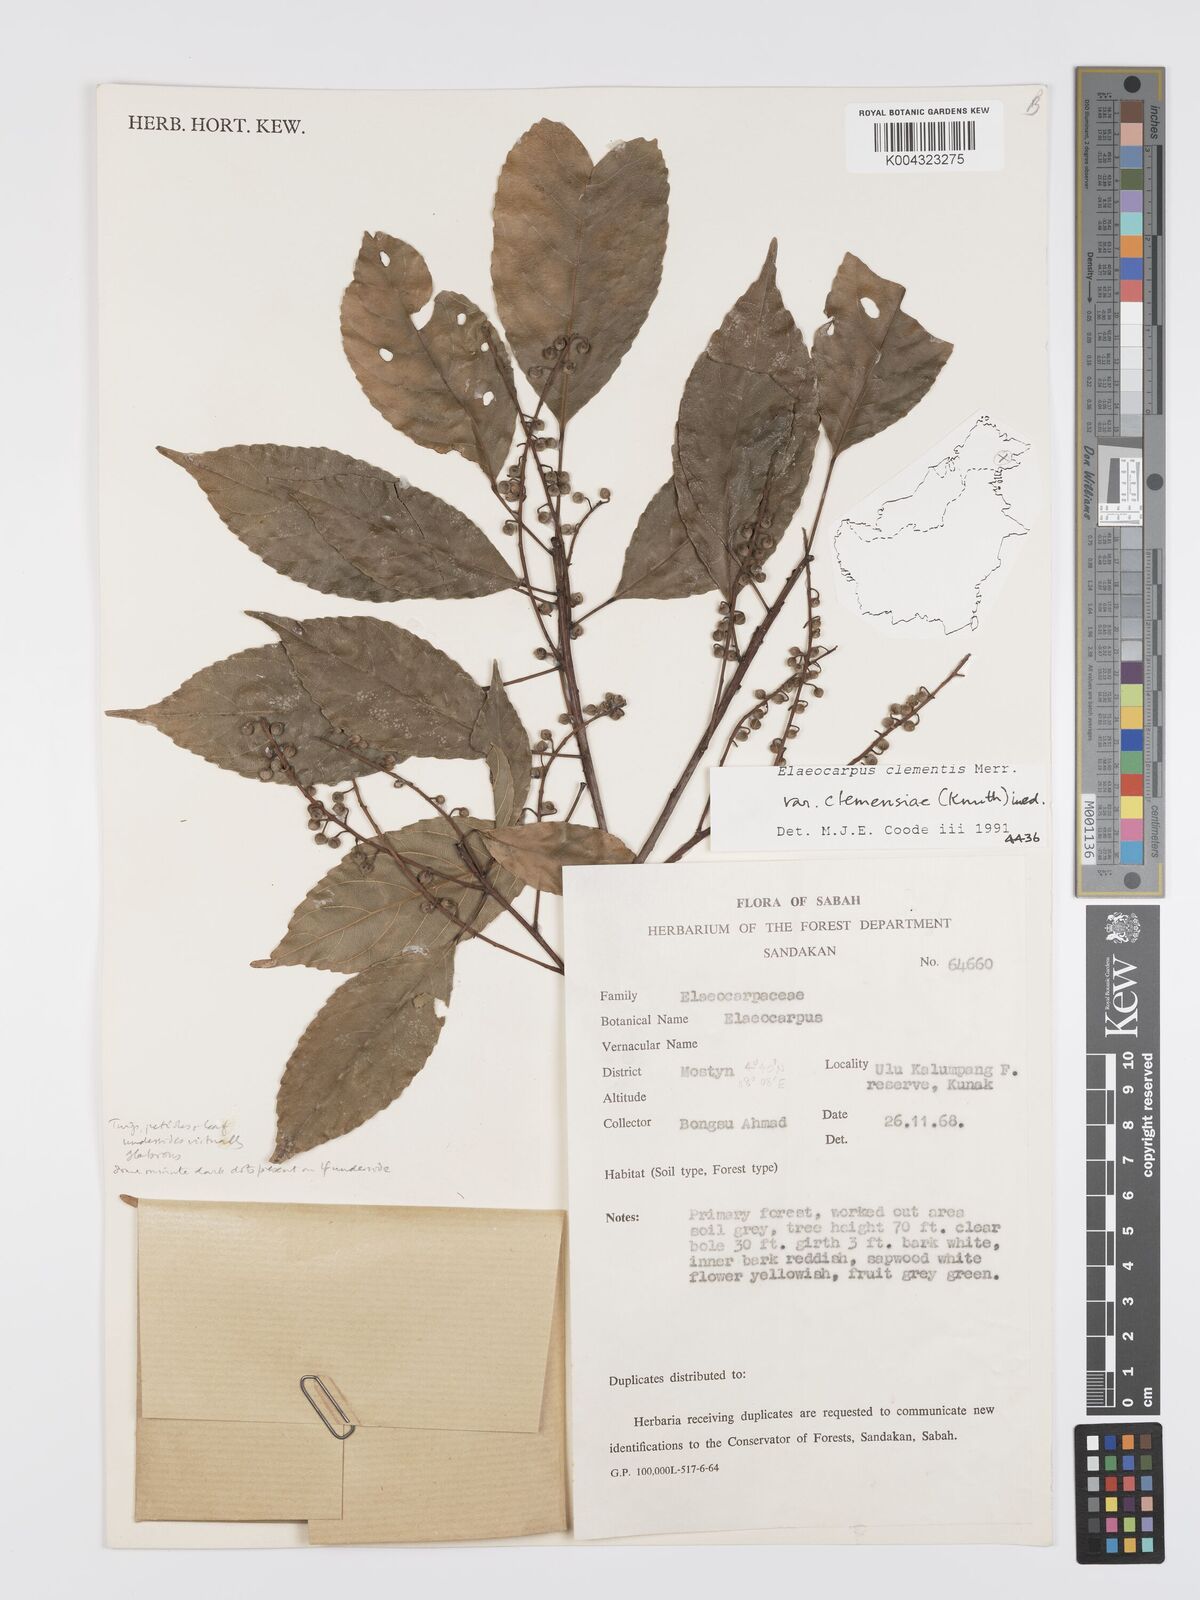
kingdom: Plantae
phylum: Tracheophyta
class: Magnoliopsida
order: Oxalidales
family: Elaeocarpaceae
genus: Elaeocarpus
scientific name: Elaeocarpus clementis
